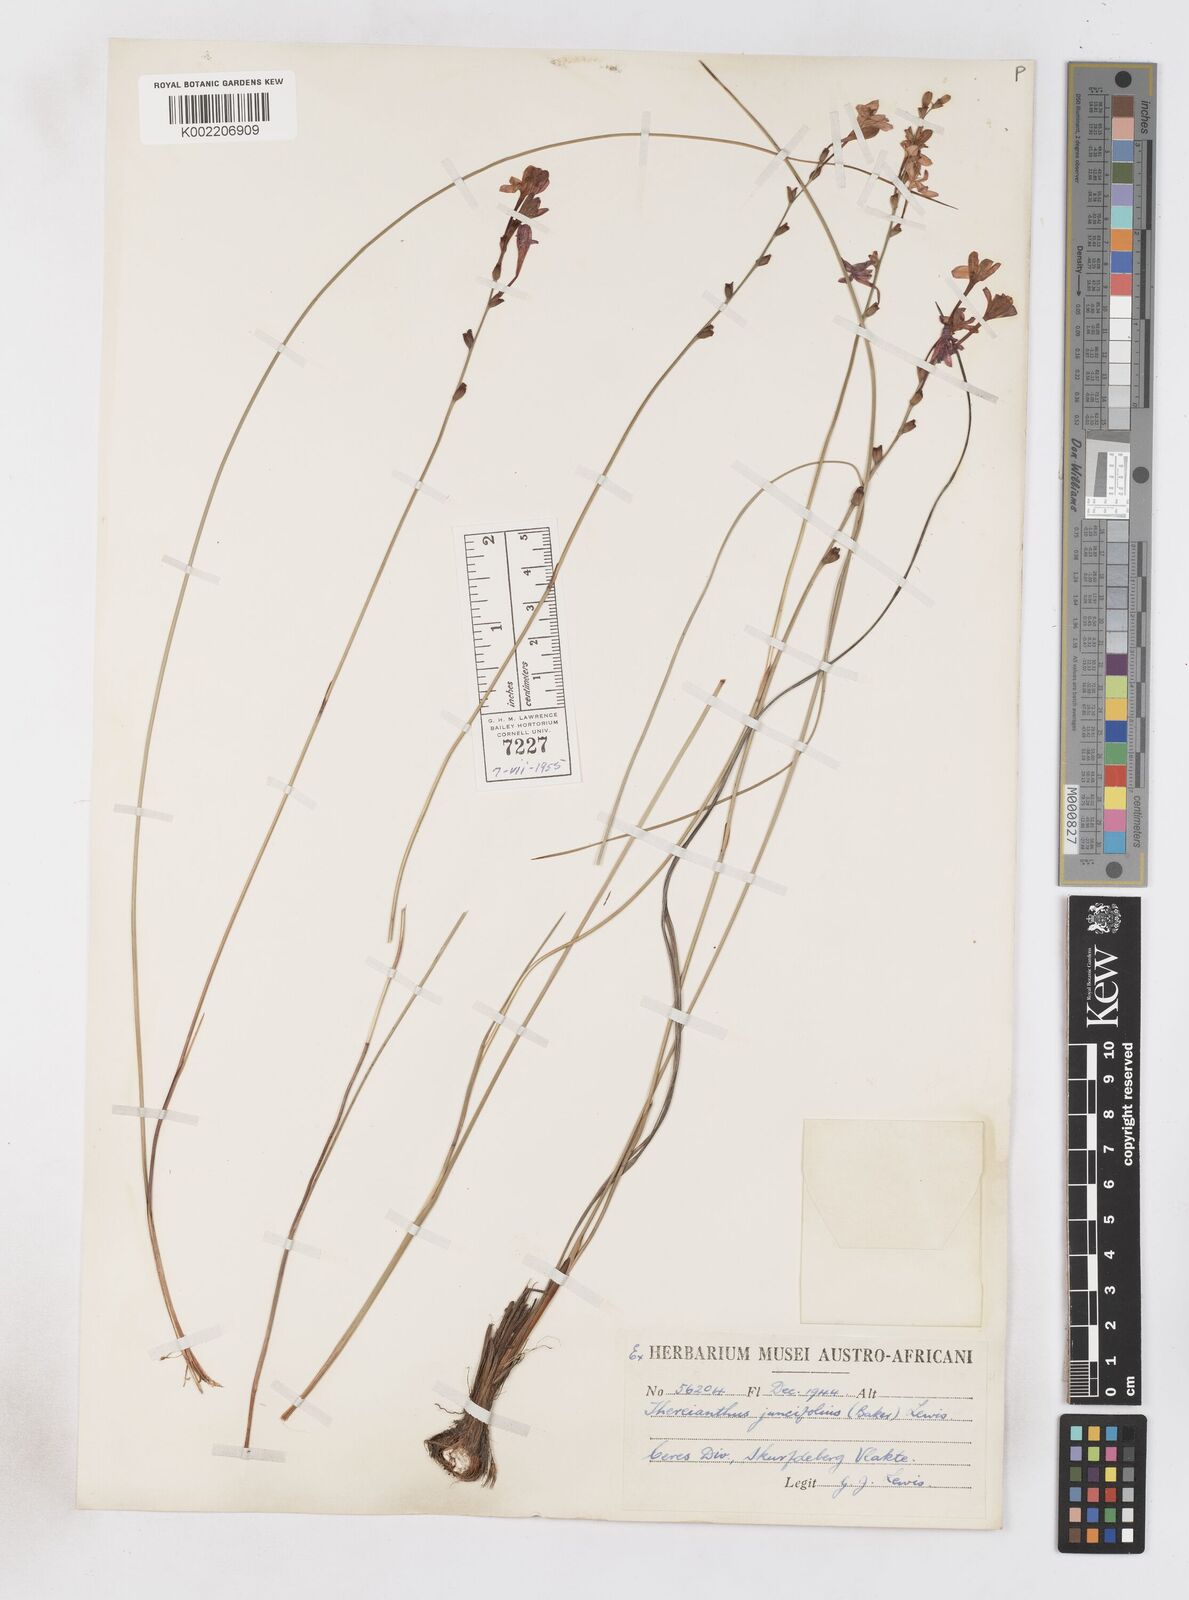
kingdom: Plantae
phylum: Tracheophyta
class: Liliopsida
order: Asparagales
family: Iridaceae
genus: Micranthus
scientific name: Micranthus plantagineus
